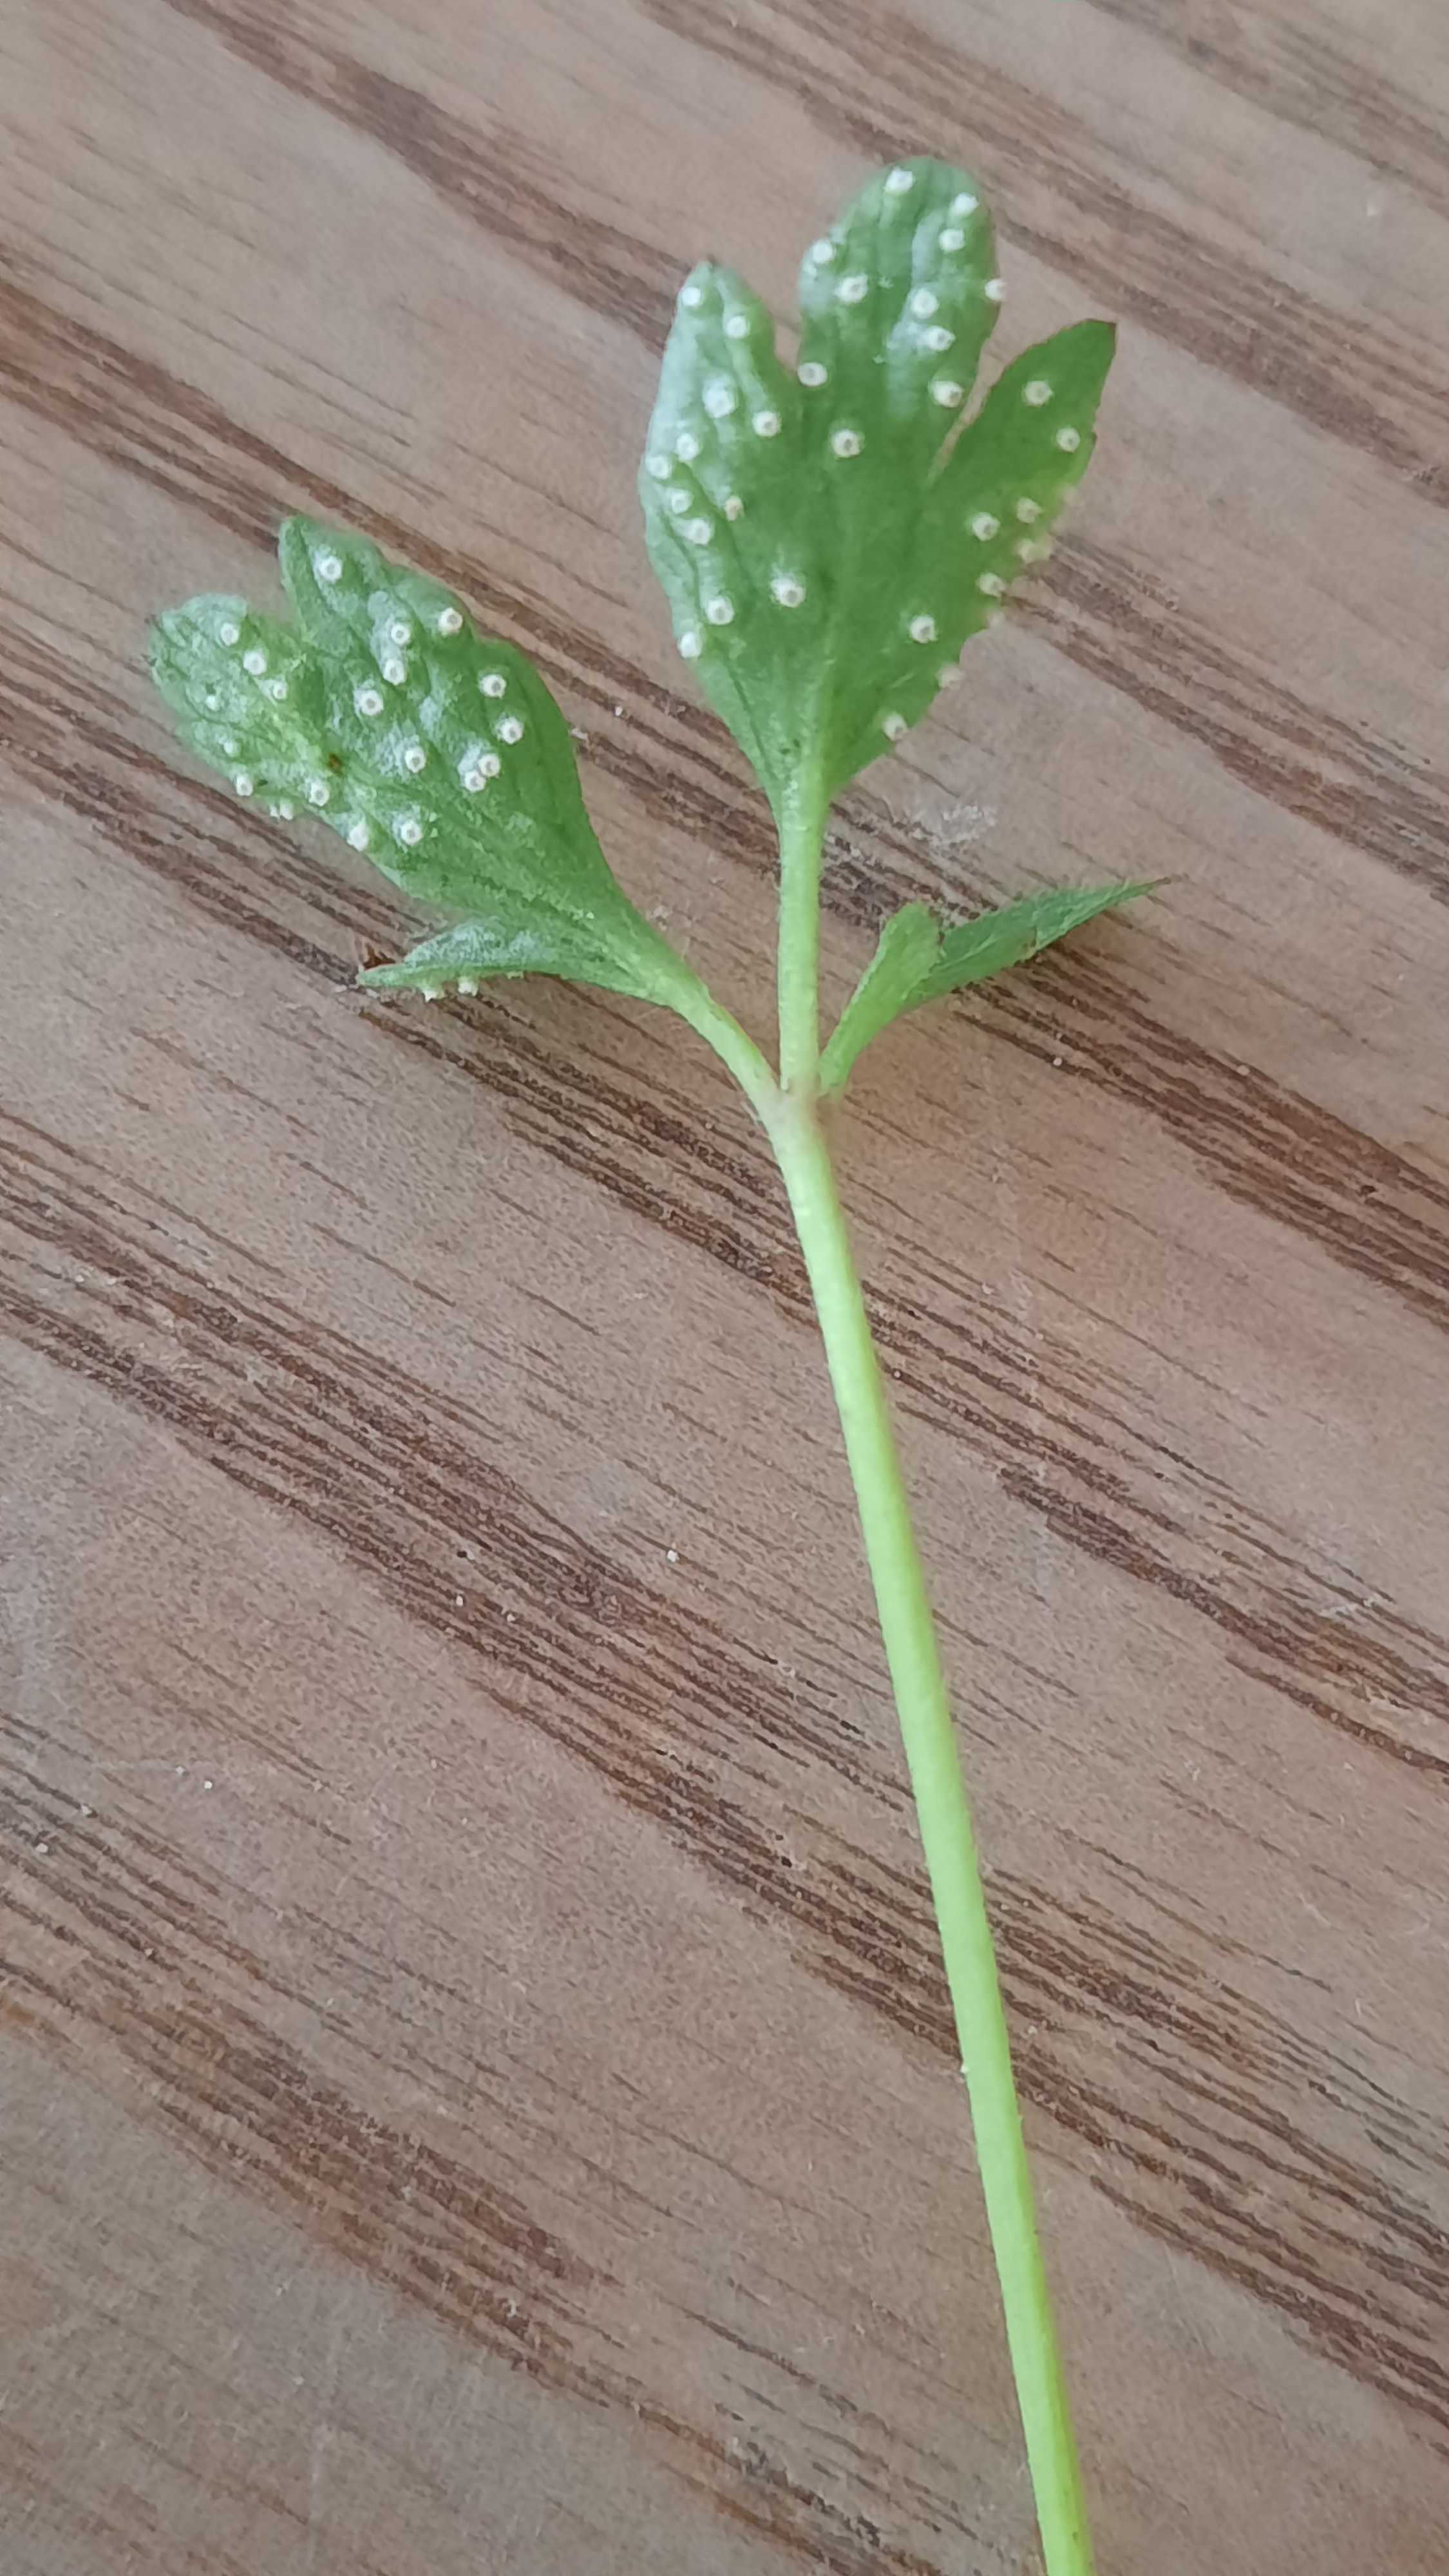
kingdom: Fungi
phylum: Basidiomycota
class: Pucciniomycetes
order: Pucciniales
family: Ochropsoraceae
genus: Ochropsora
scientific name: Ochropsora ariae
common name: anemone-okkerpletrust
